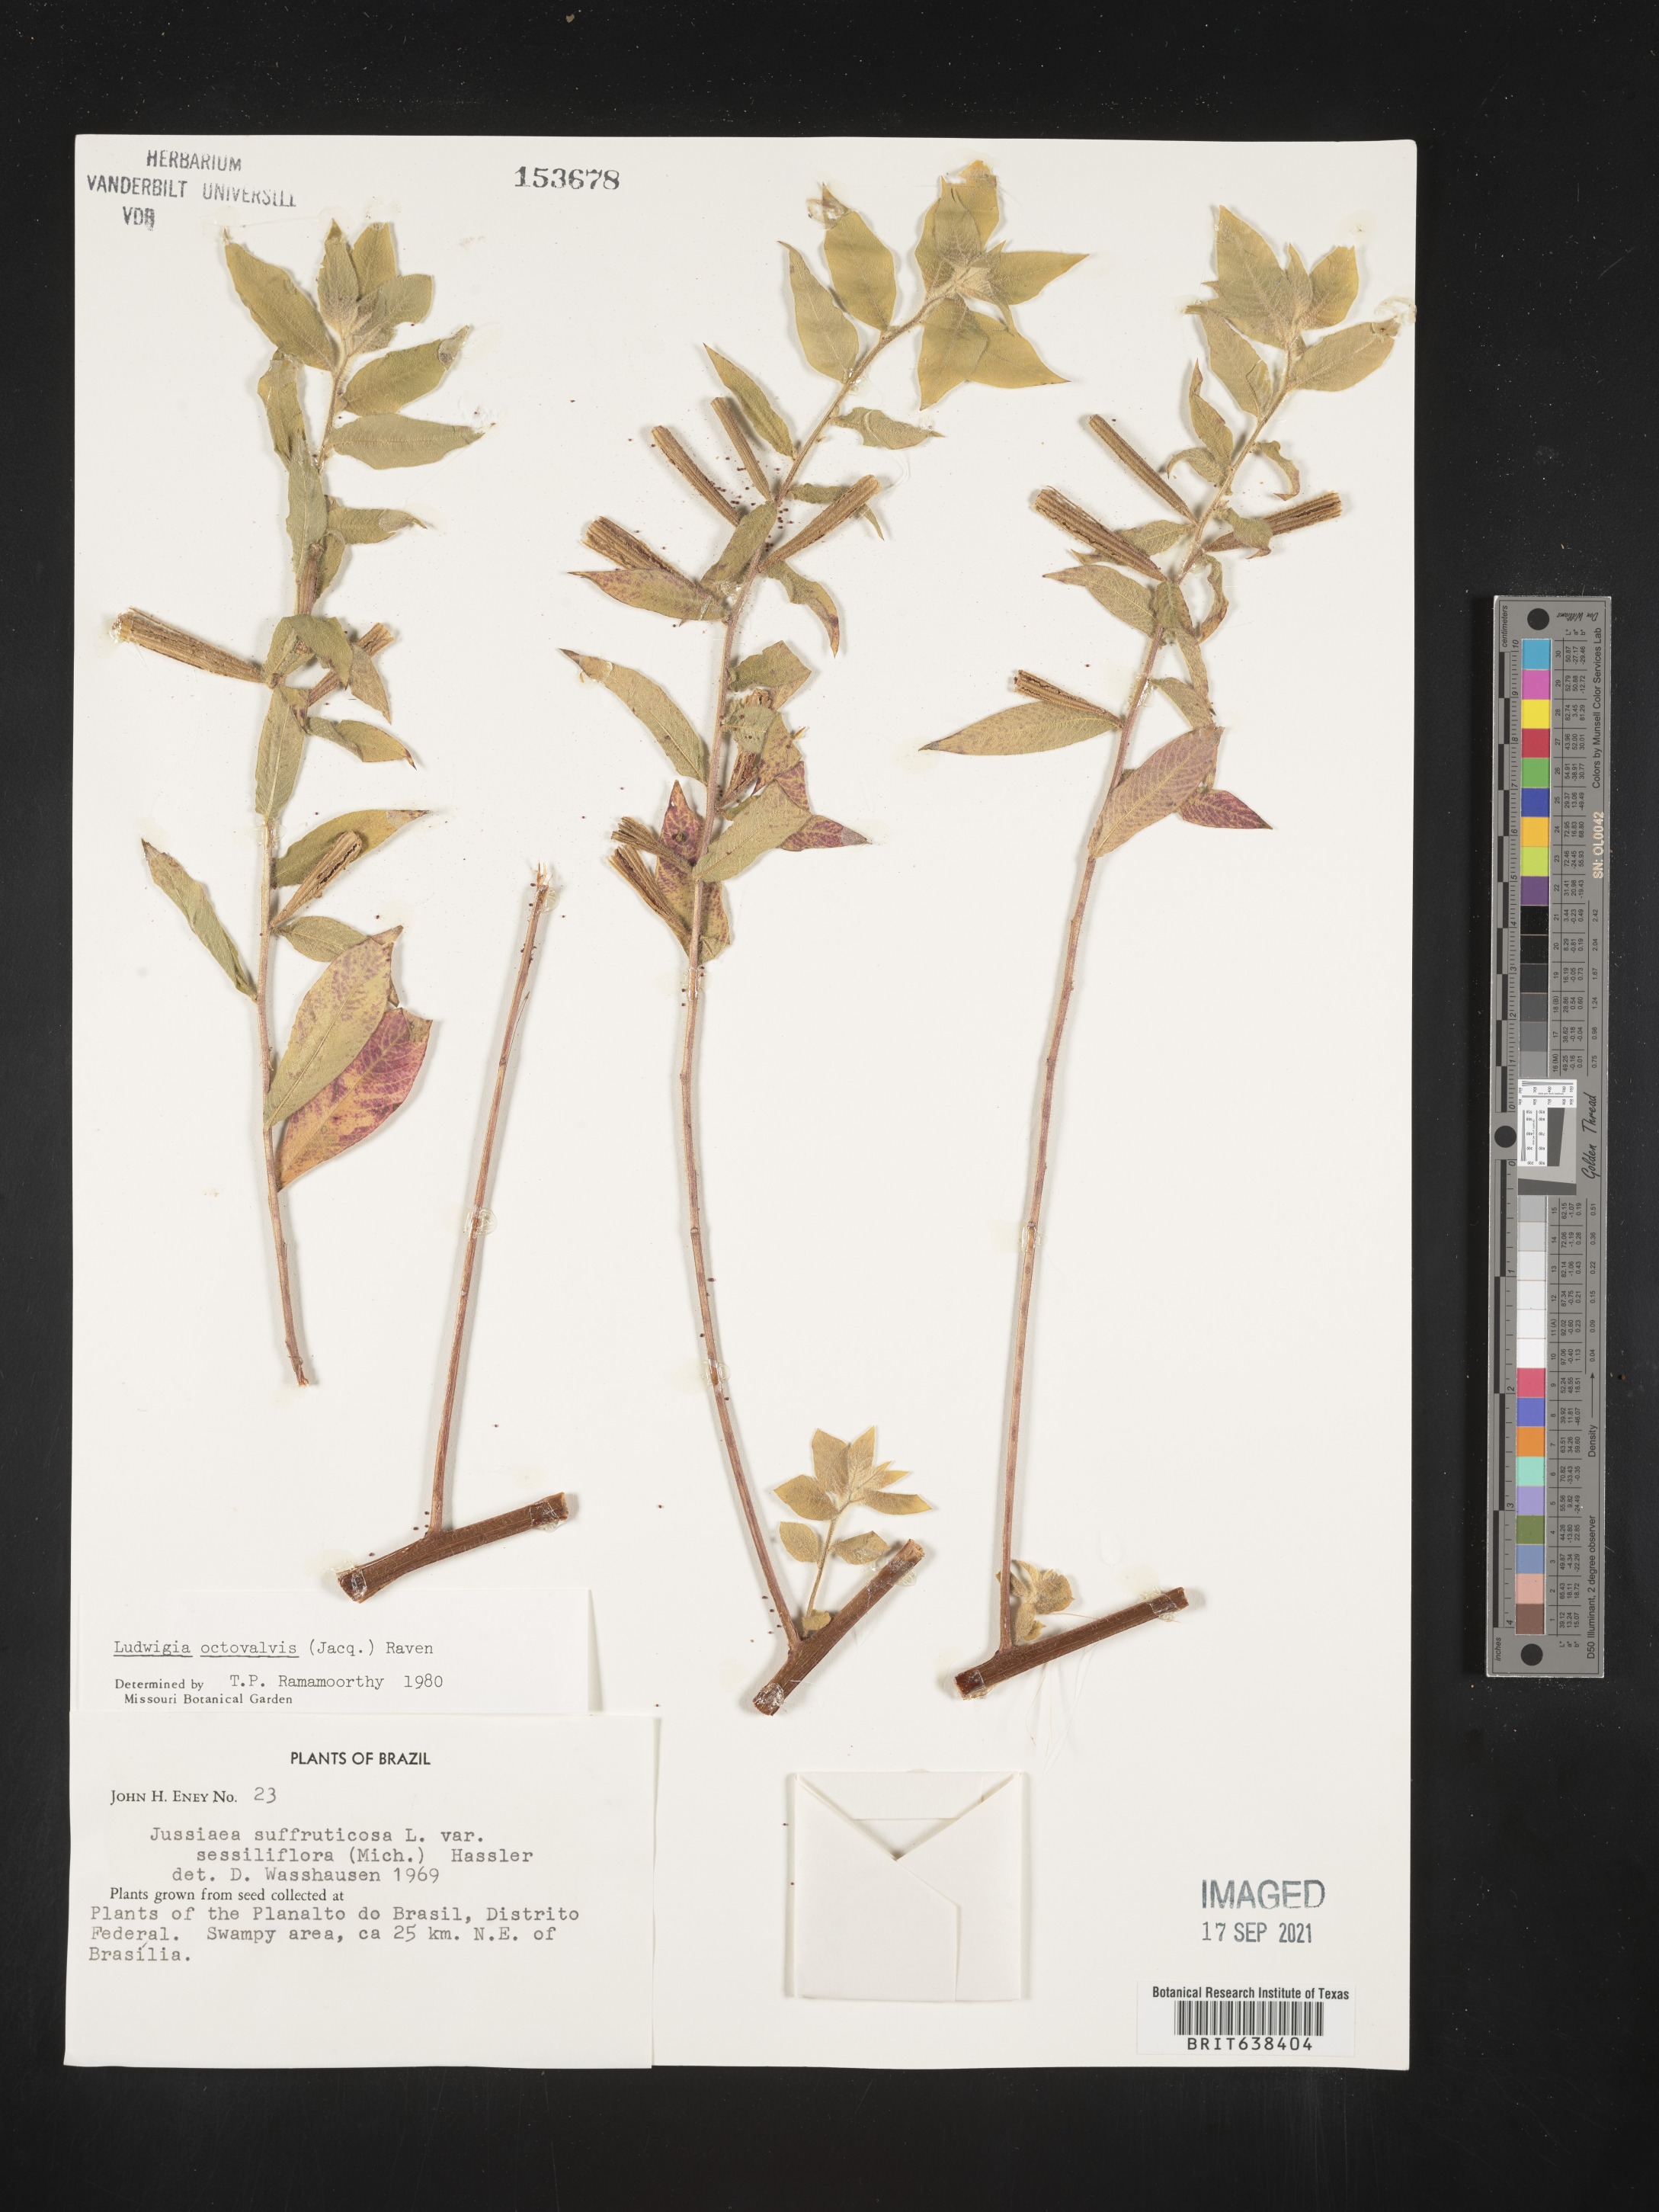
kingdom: Plantae
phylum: Tracheophyta
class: Magnoliopsida
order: Myrtales
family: Onagraceae
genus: Ludwigia
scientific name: Ludwigia
